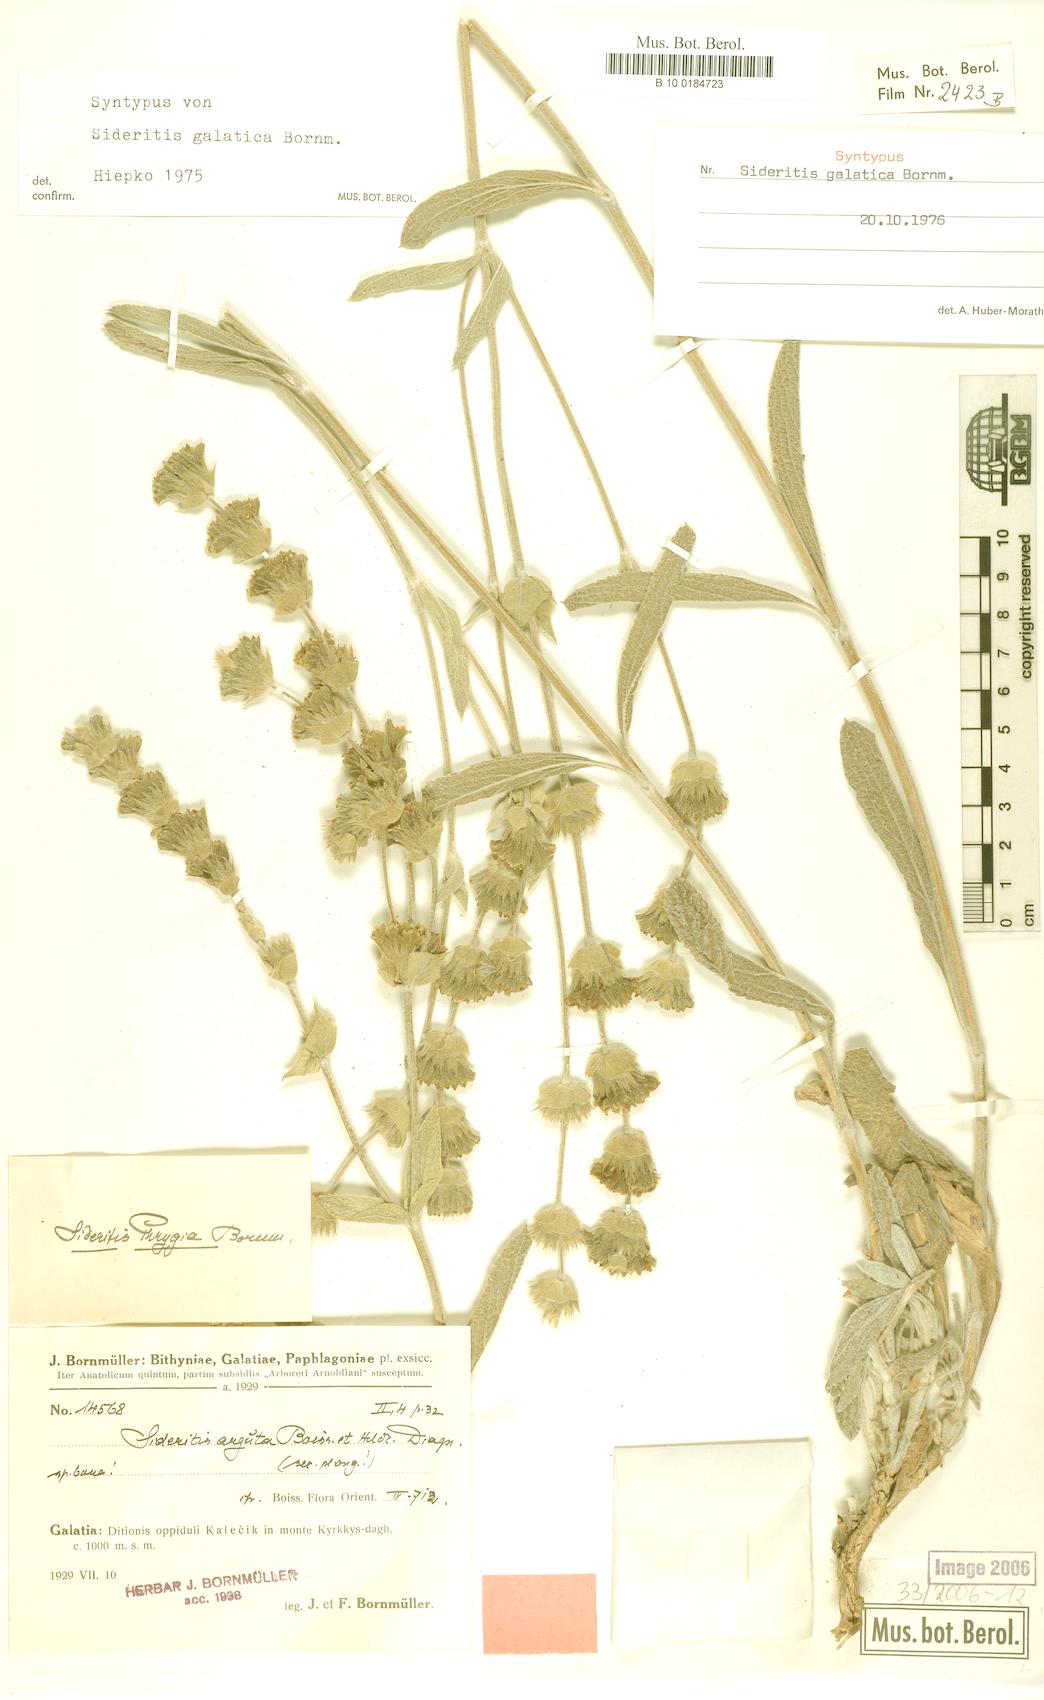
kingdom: Plantae
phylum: Tracheophyta
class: Magnoliopsida
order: Lamiales
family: Lamiaceae
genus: Sideritis
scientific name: Sideritis galatica
